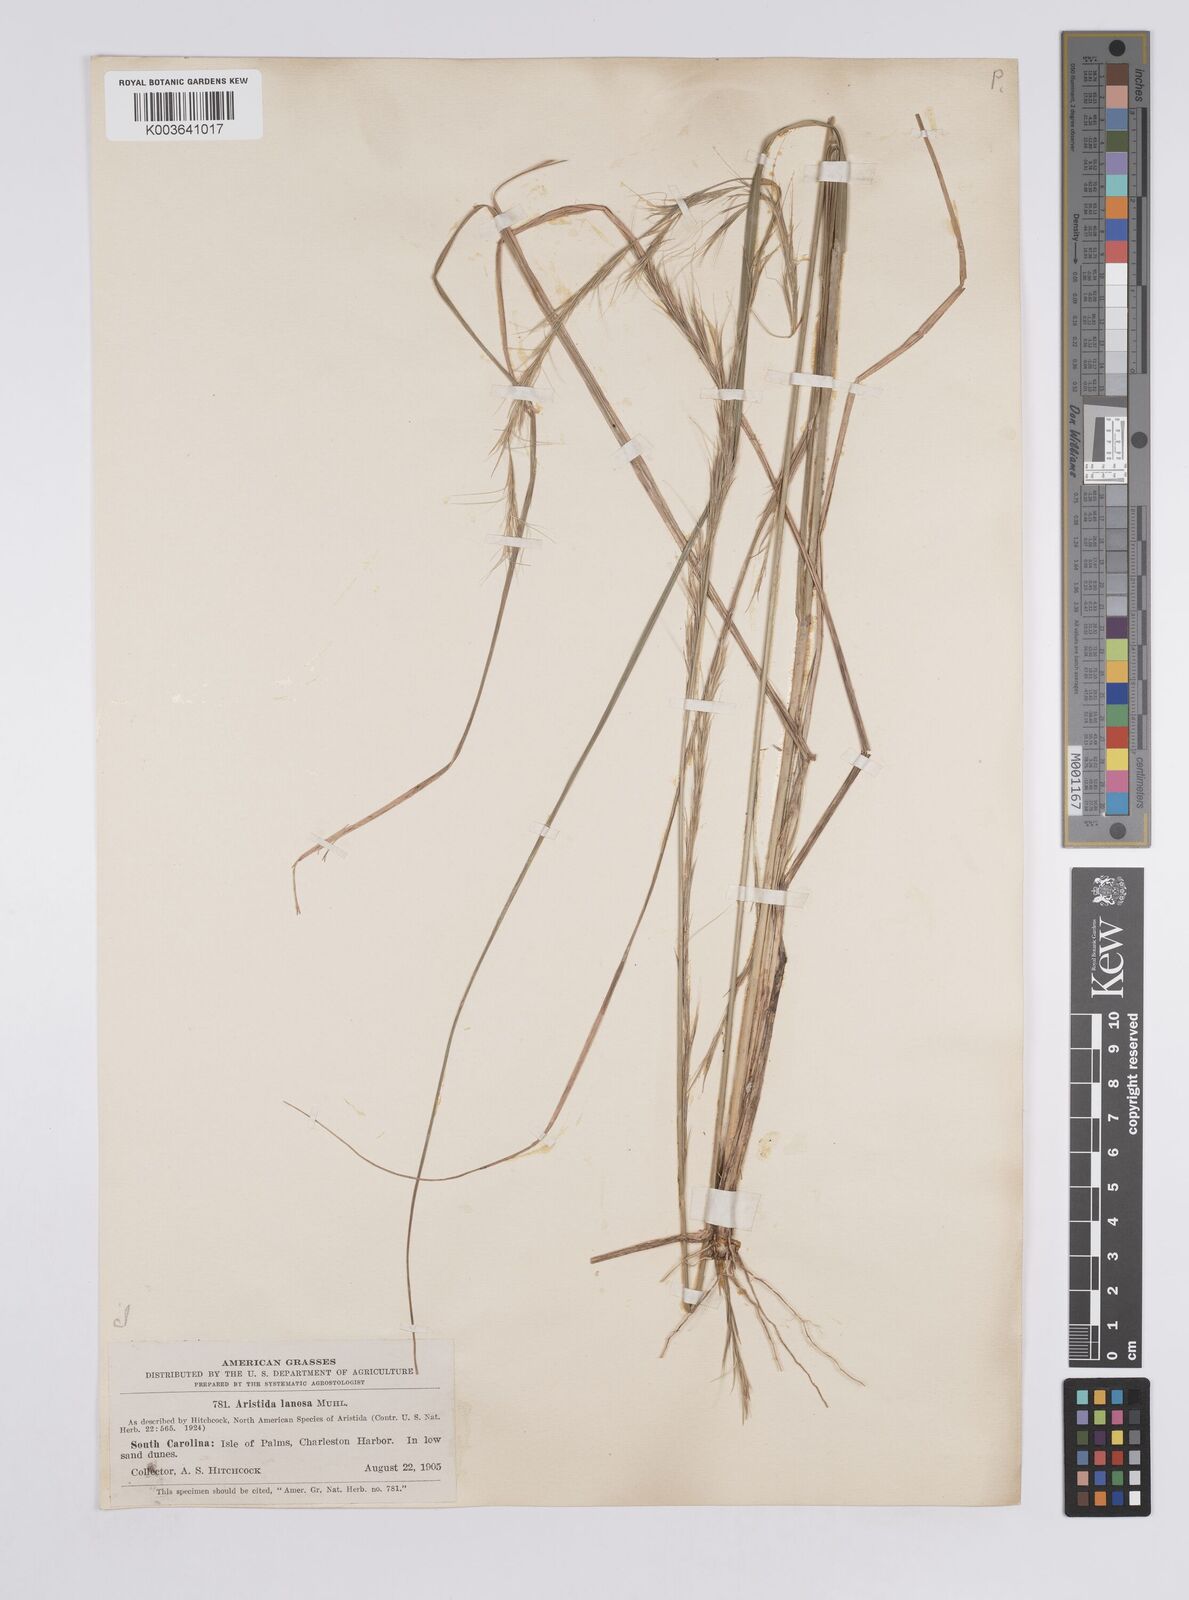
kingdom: Plantae
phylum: Tracheophyta
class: Liliopsida
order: Poales
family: Poaceae
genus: Aristida
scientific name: Aristida lanosa
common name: Woolly three-awn
